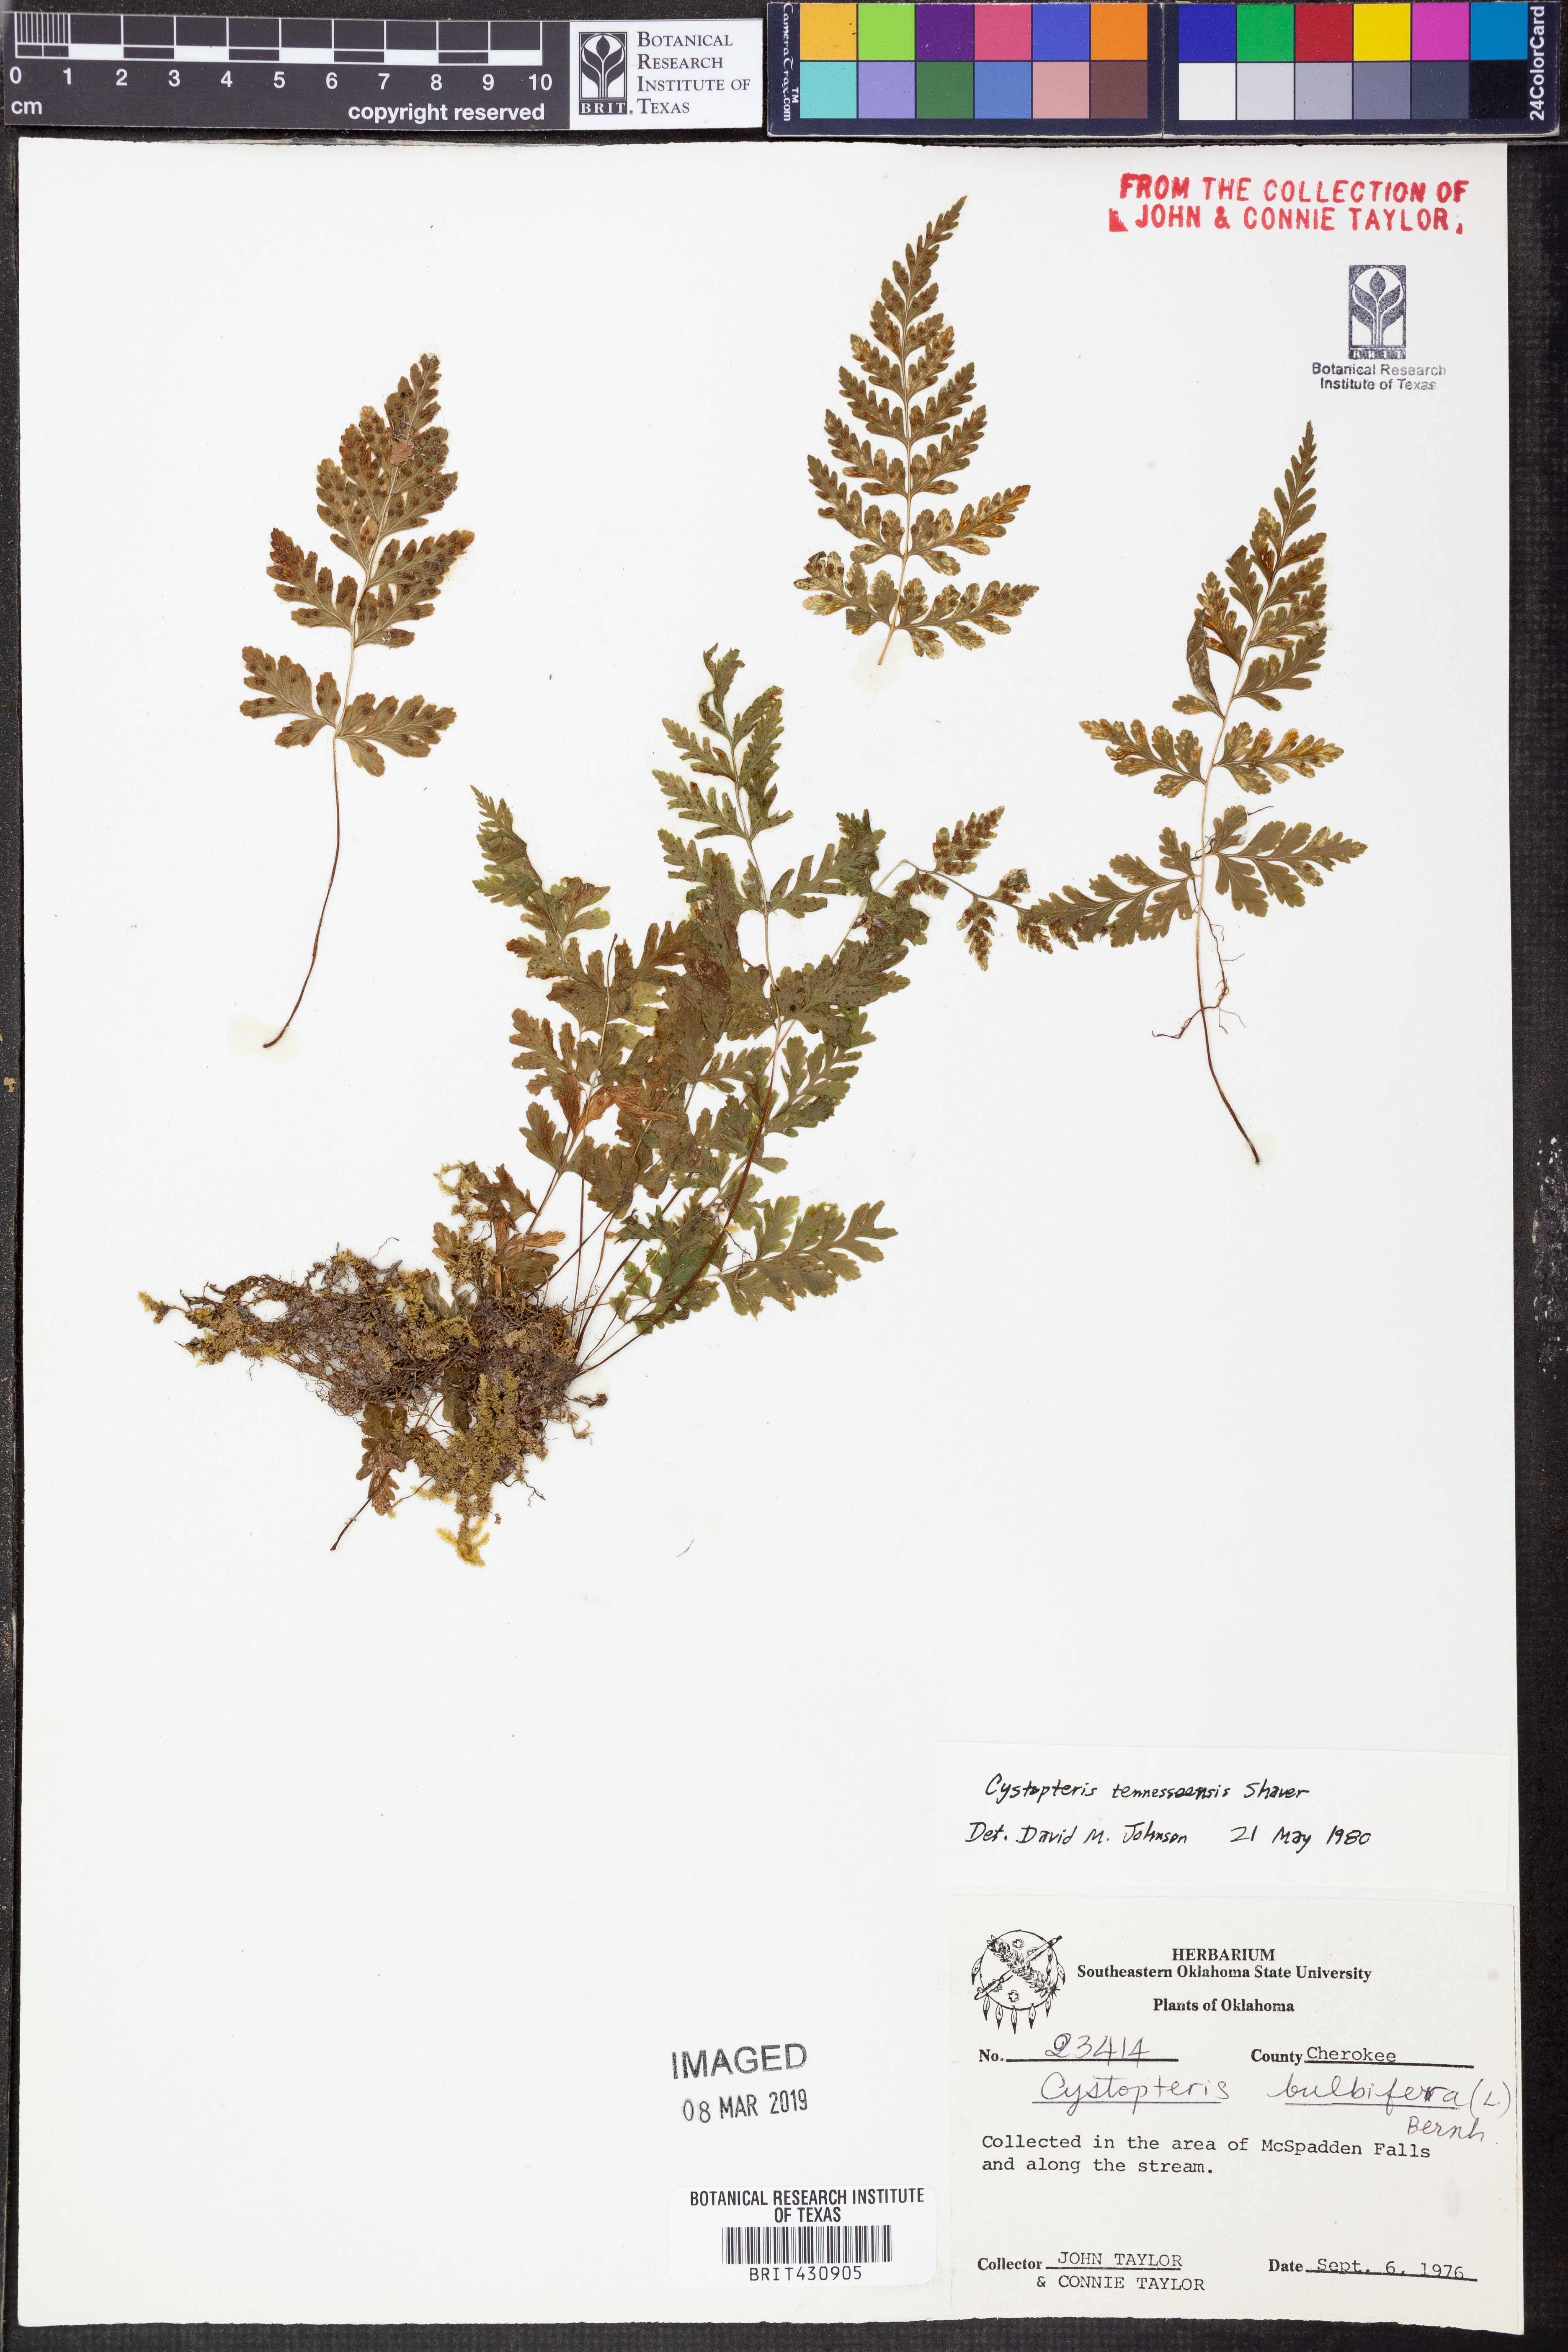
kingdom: Plantae
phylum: Tracheophyta
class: Polypodiopsida
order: Polypodiales
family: Cystopteridaceae
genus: Cystopteris
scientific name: Cystopteris tennesseensis
